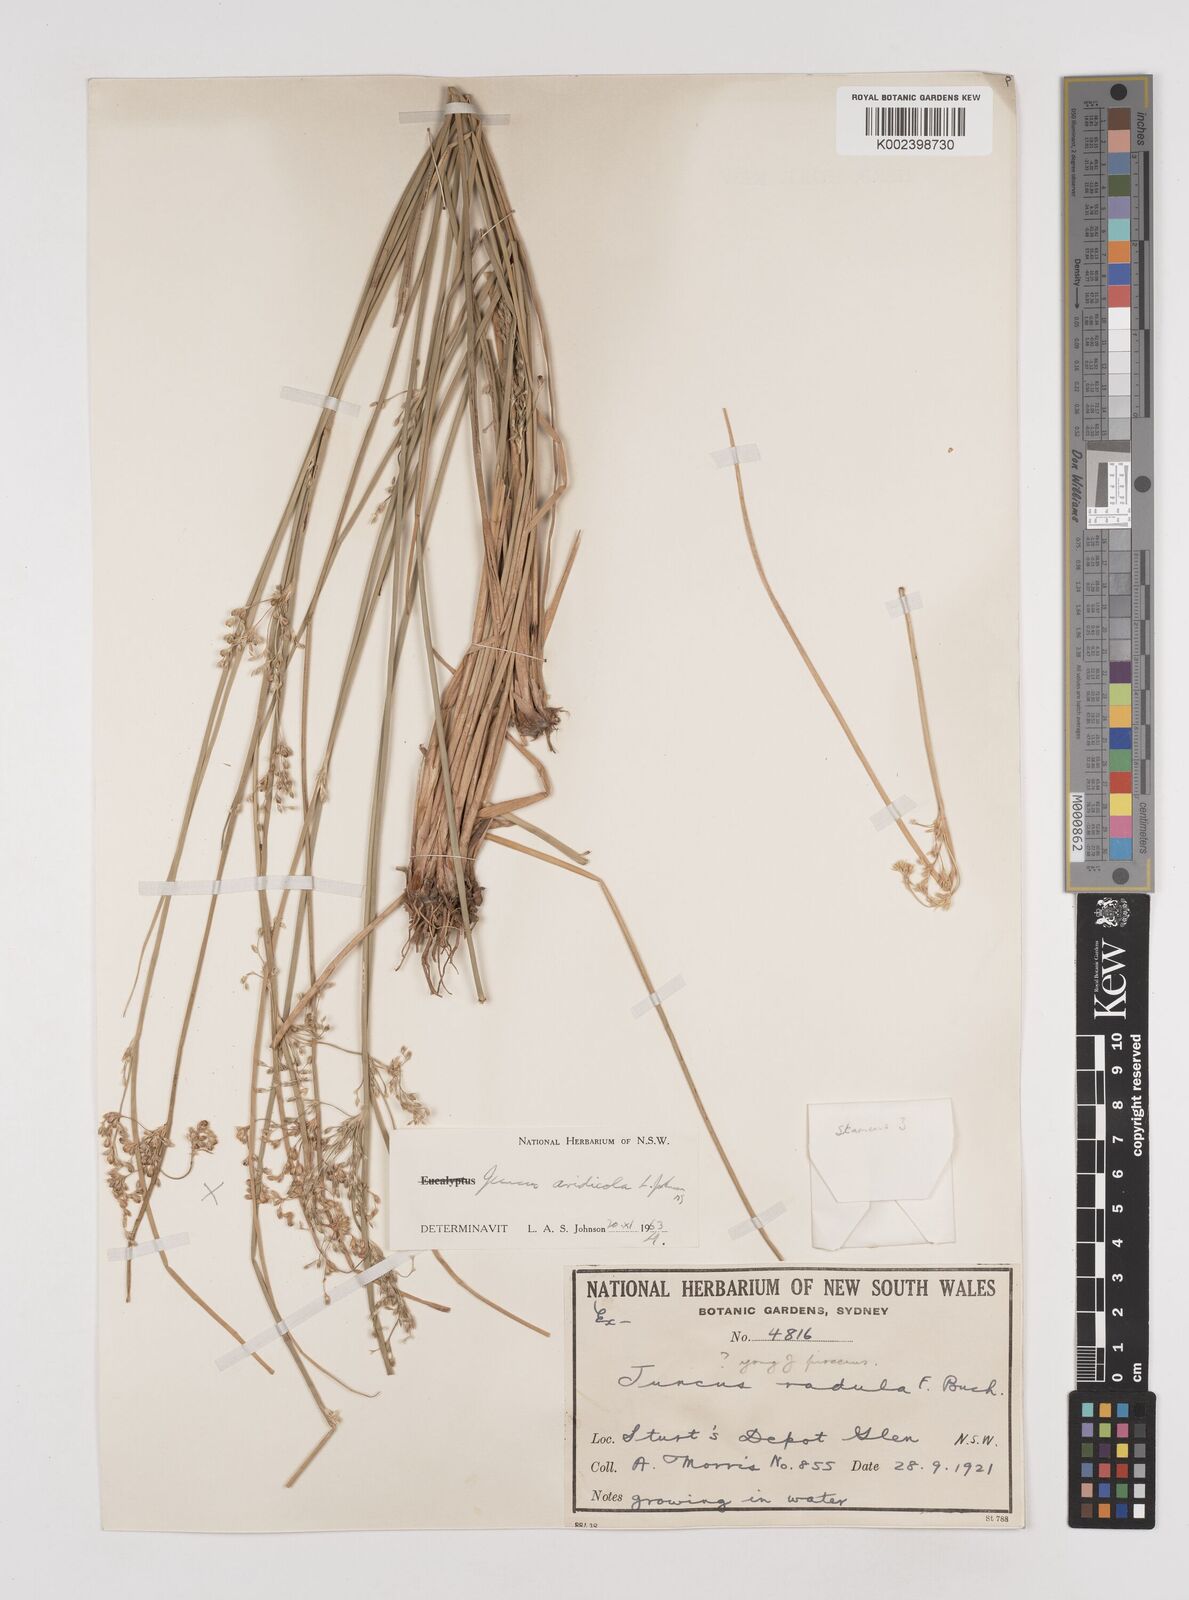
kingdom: Plantae
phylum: Tracheophyta
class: Liliopsida
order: Poales
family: Juncaceae
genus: Juncus
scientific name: Juncus aridicola
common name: Tussock rush
